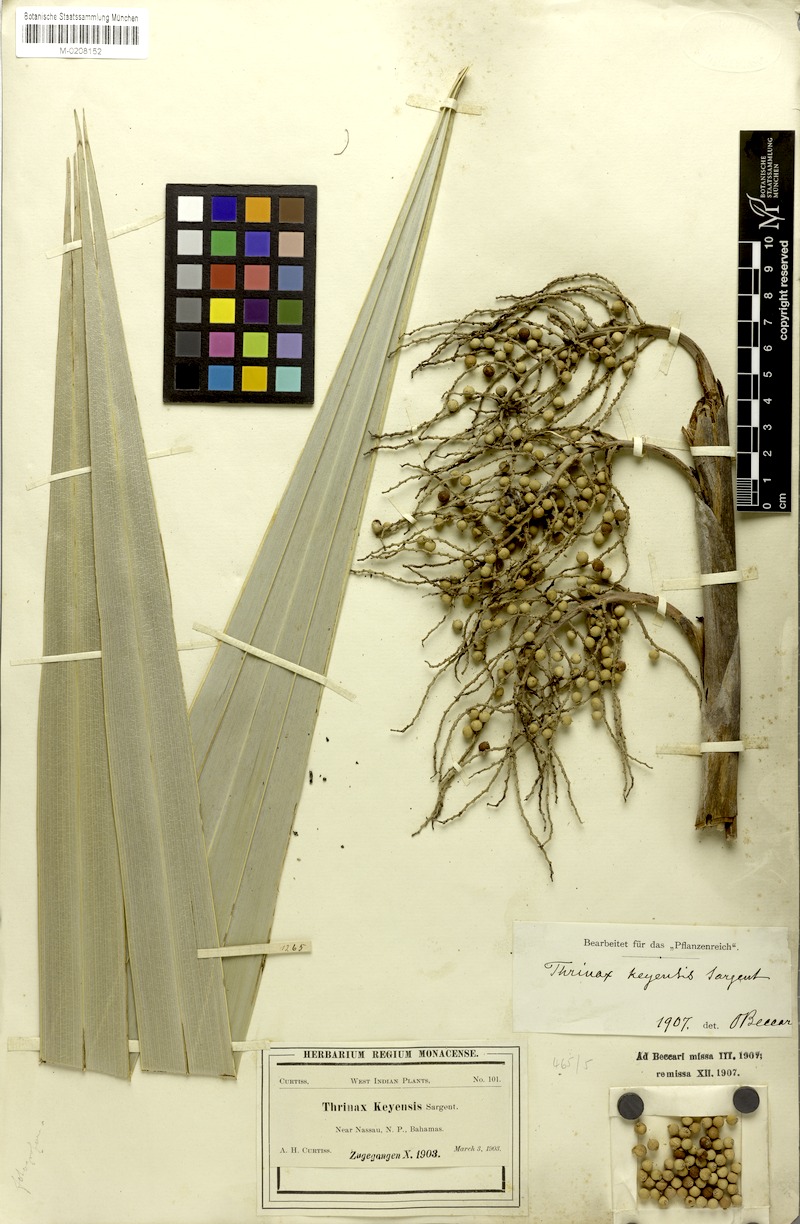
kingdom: Plantae
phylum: Tracheophyta
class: Liliopsida
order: Arecales
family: Arecaceae
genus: Leucothrinax
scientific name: Leucothrinax morrisii
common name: Key palm
